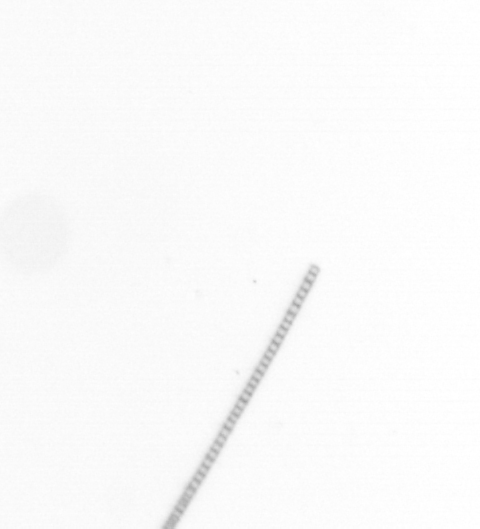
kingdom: Chromista
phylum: Ochrophyta
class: Bacillariophyceae
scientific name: Bacillariophyceae
